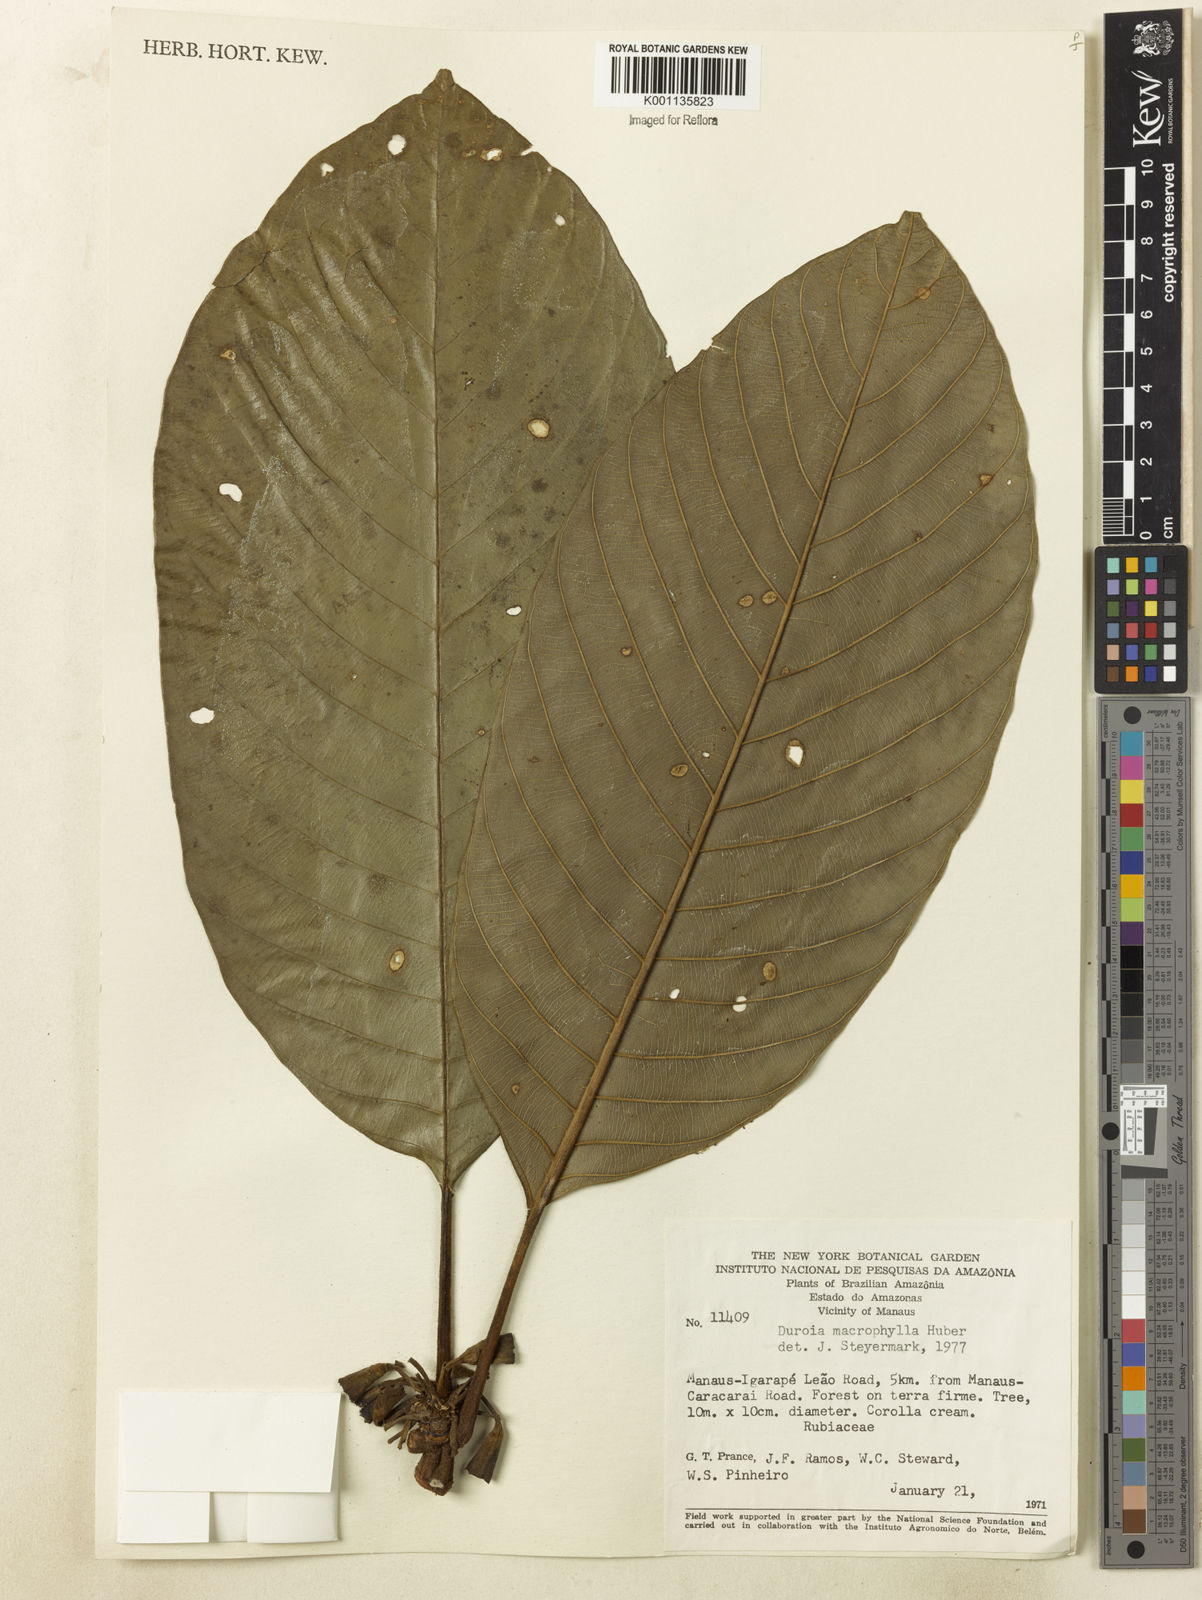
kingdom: Plantae
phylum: Tracheophyta
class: Magnoliopsida
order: Gentianales
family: Rubiaceae
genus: Duroia
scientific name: Duroia macrophylla
